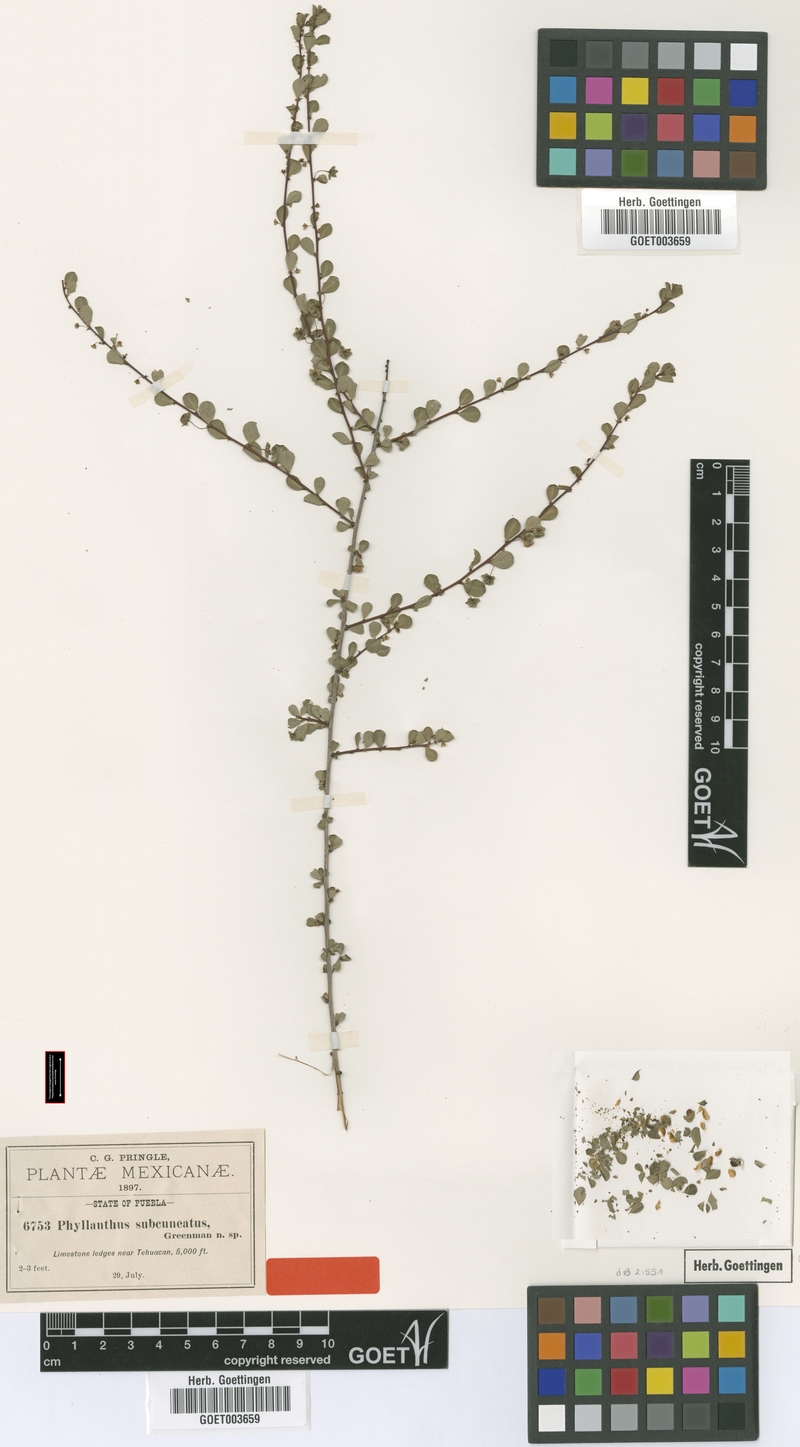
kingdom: Plantae
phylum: Tracheophyta
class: Magnoliopsida
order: Malpighiales
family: Phyllanthaceae
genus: Phyllanthus
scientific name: Phyllanthus subcuneatus
